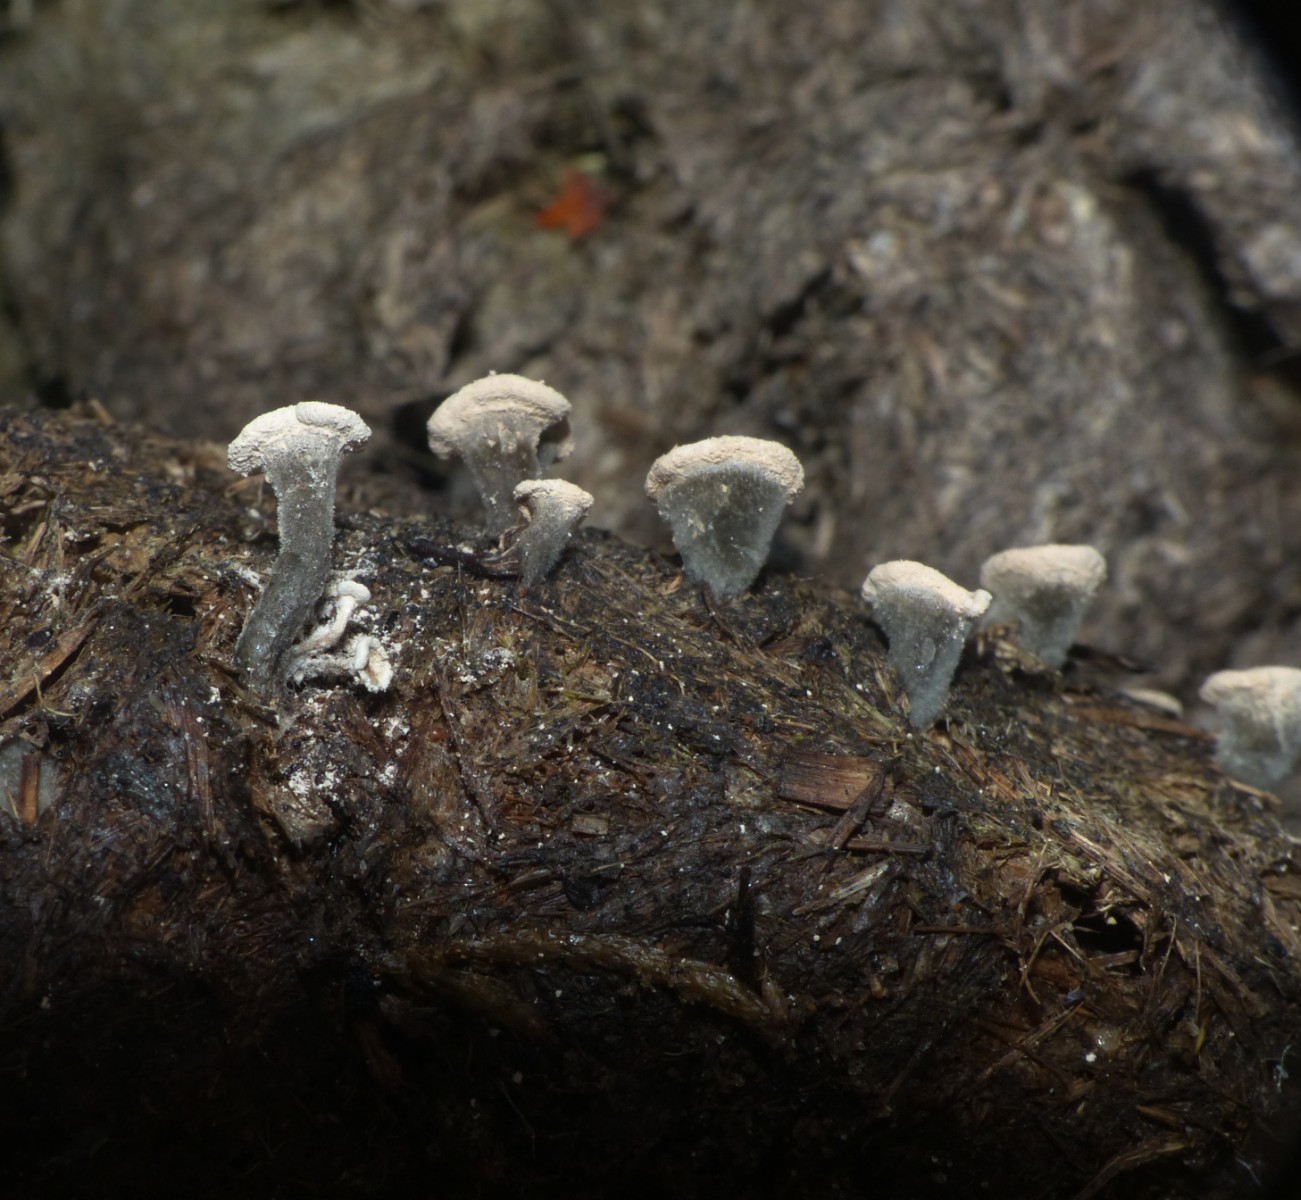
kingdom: Fungi
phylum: Ascomycota
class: Sordariomycetes
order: Xylariales
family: Xylariaceae
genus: Poronia
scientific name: Poronia punctata
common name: stor priksvamp
